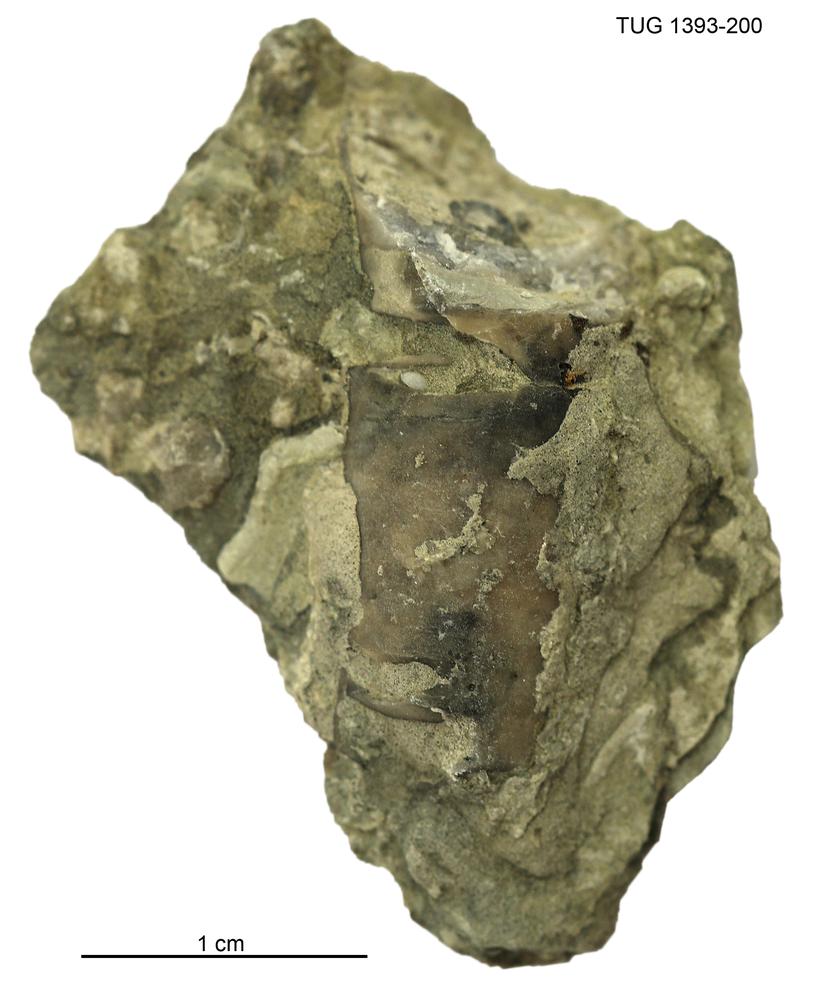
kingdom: Animalia
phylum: Mollusca
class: Cephalopoda
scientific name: Cephalopoda
